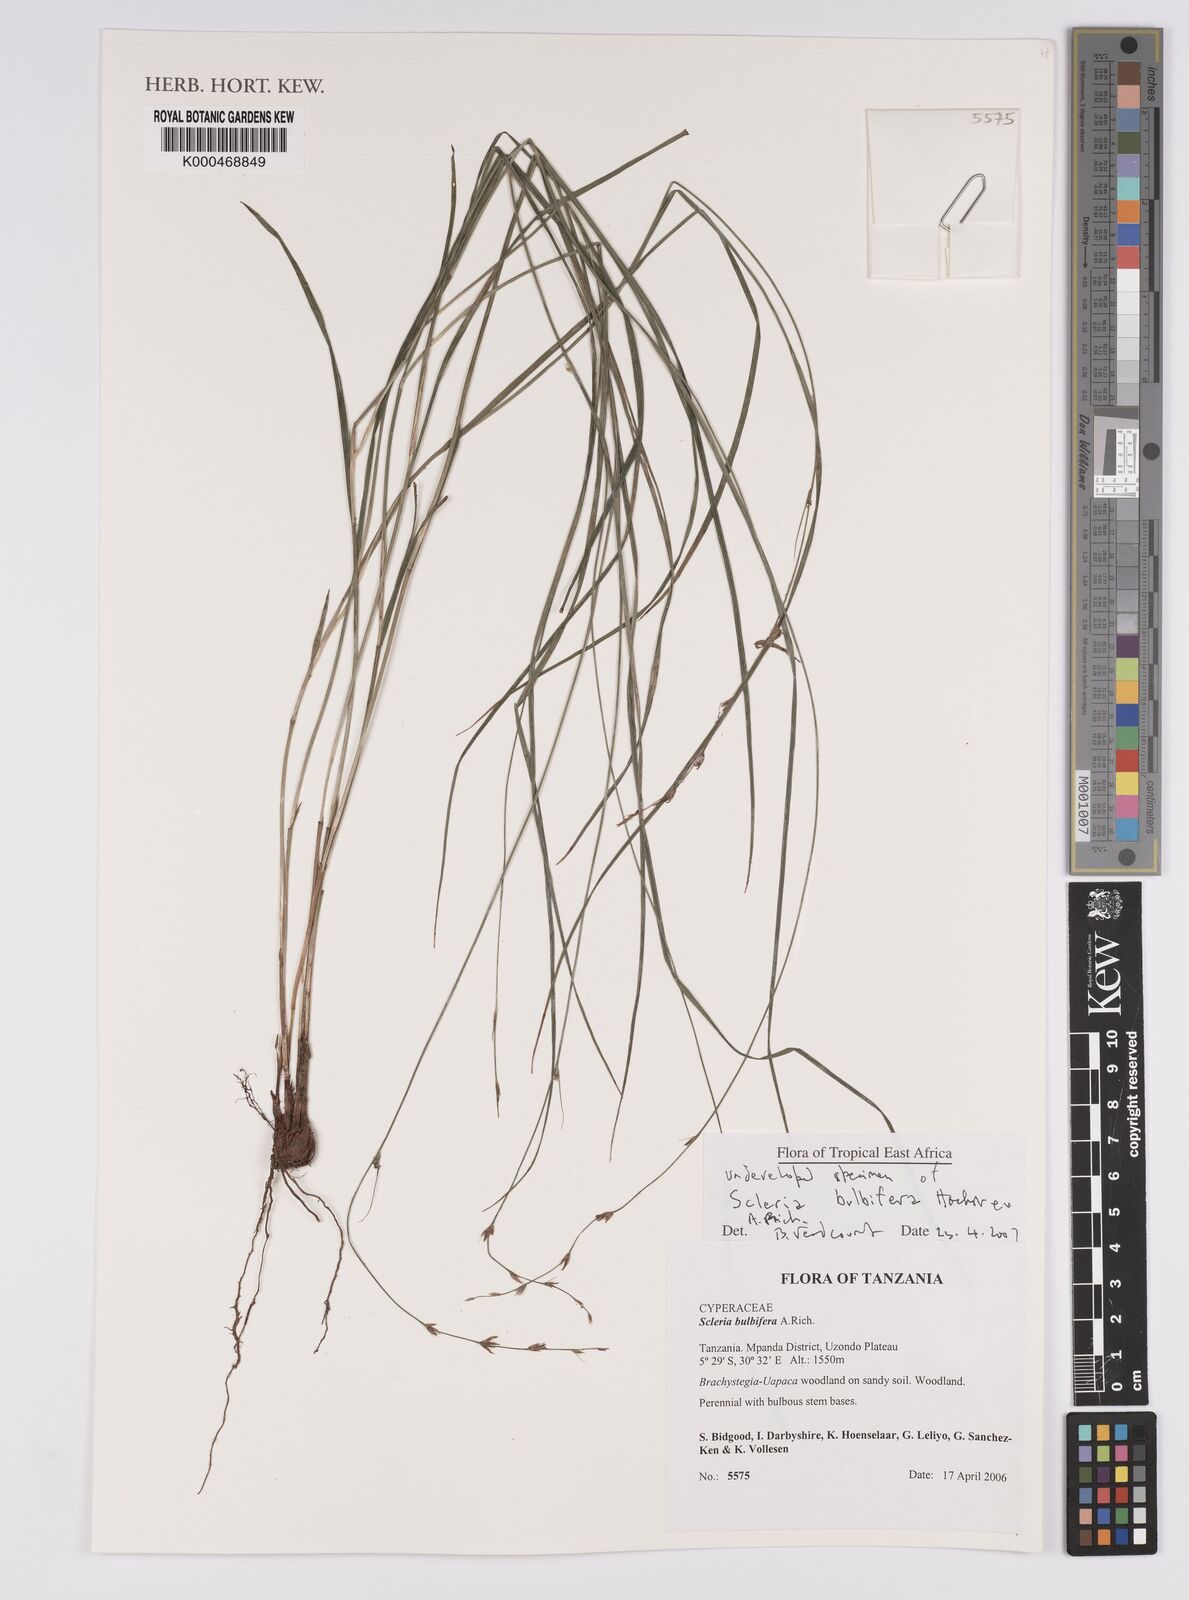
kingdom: Plantae
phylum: Tracheophyta
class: Liliopsida
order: Poales
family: Cyperaceae
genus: Scleria
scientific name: Scleria bulbifera
